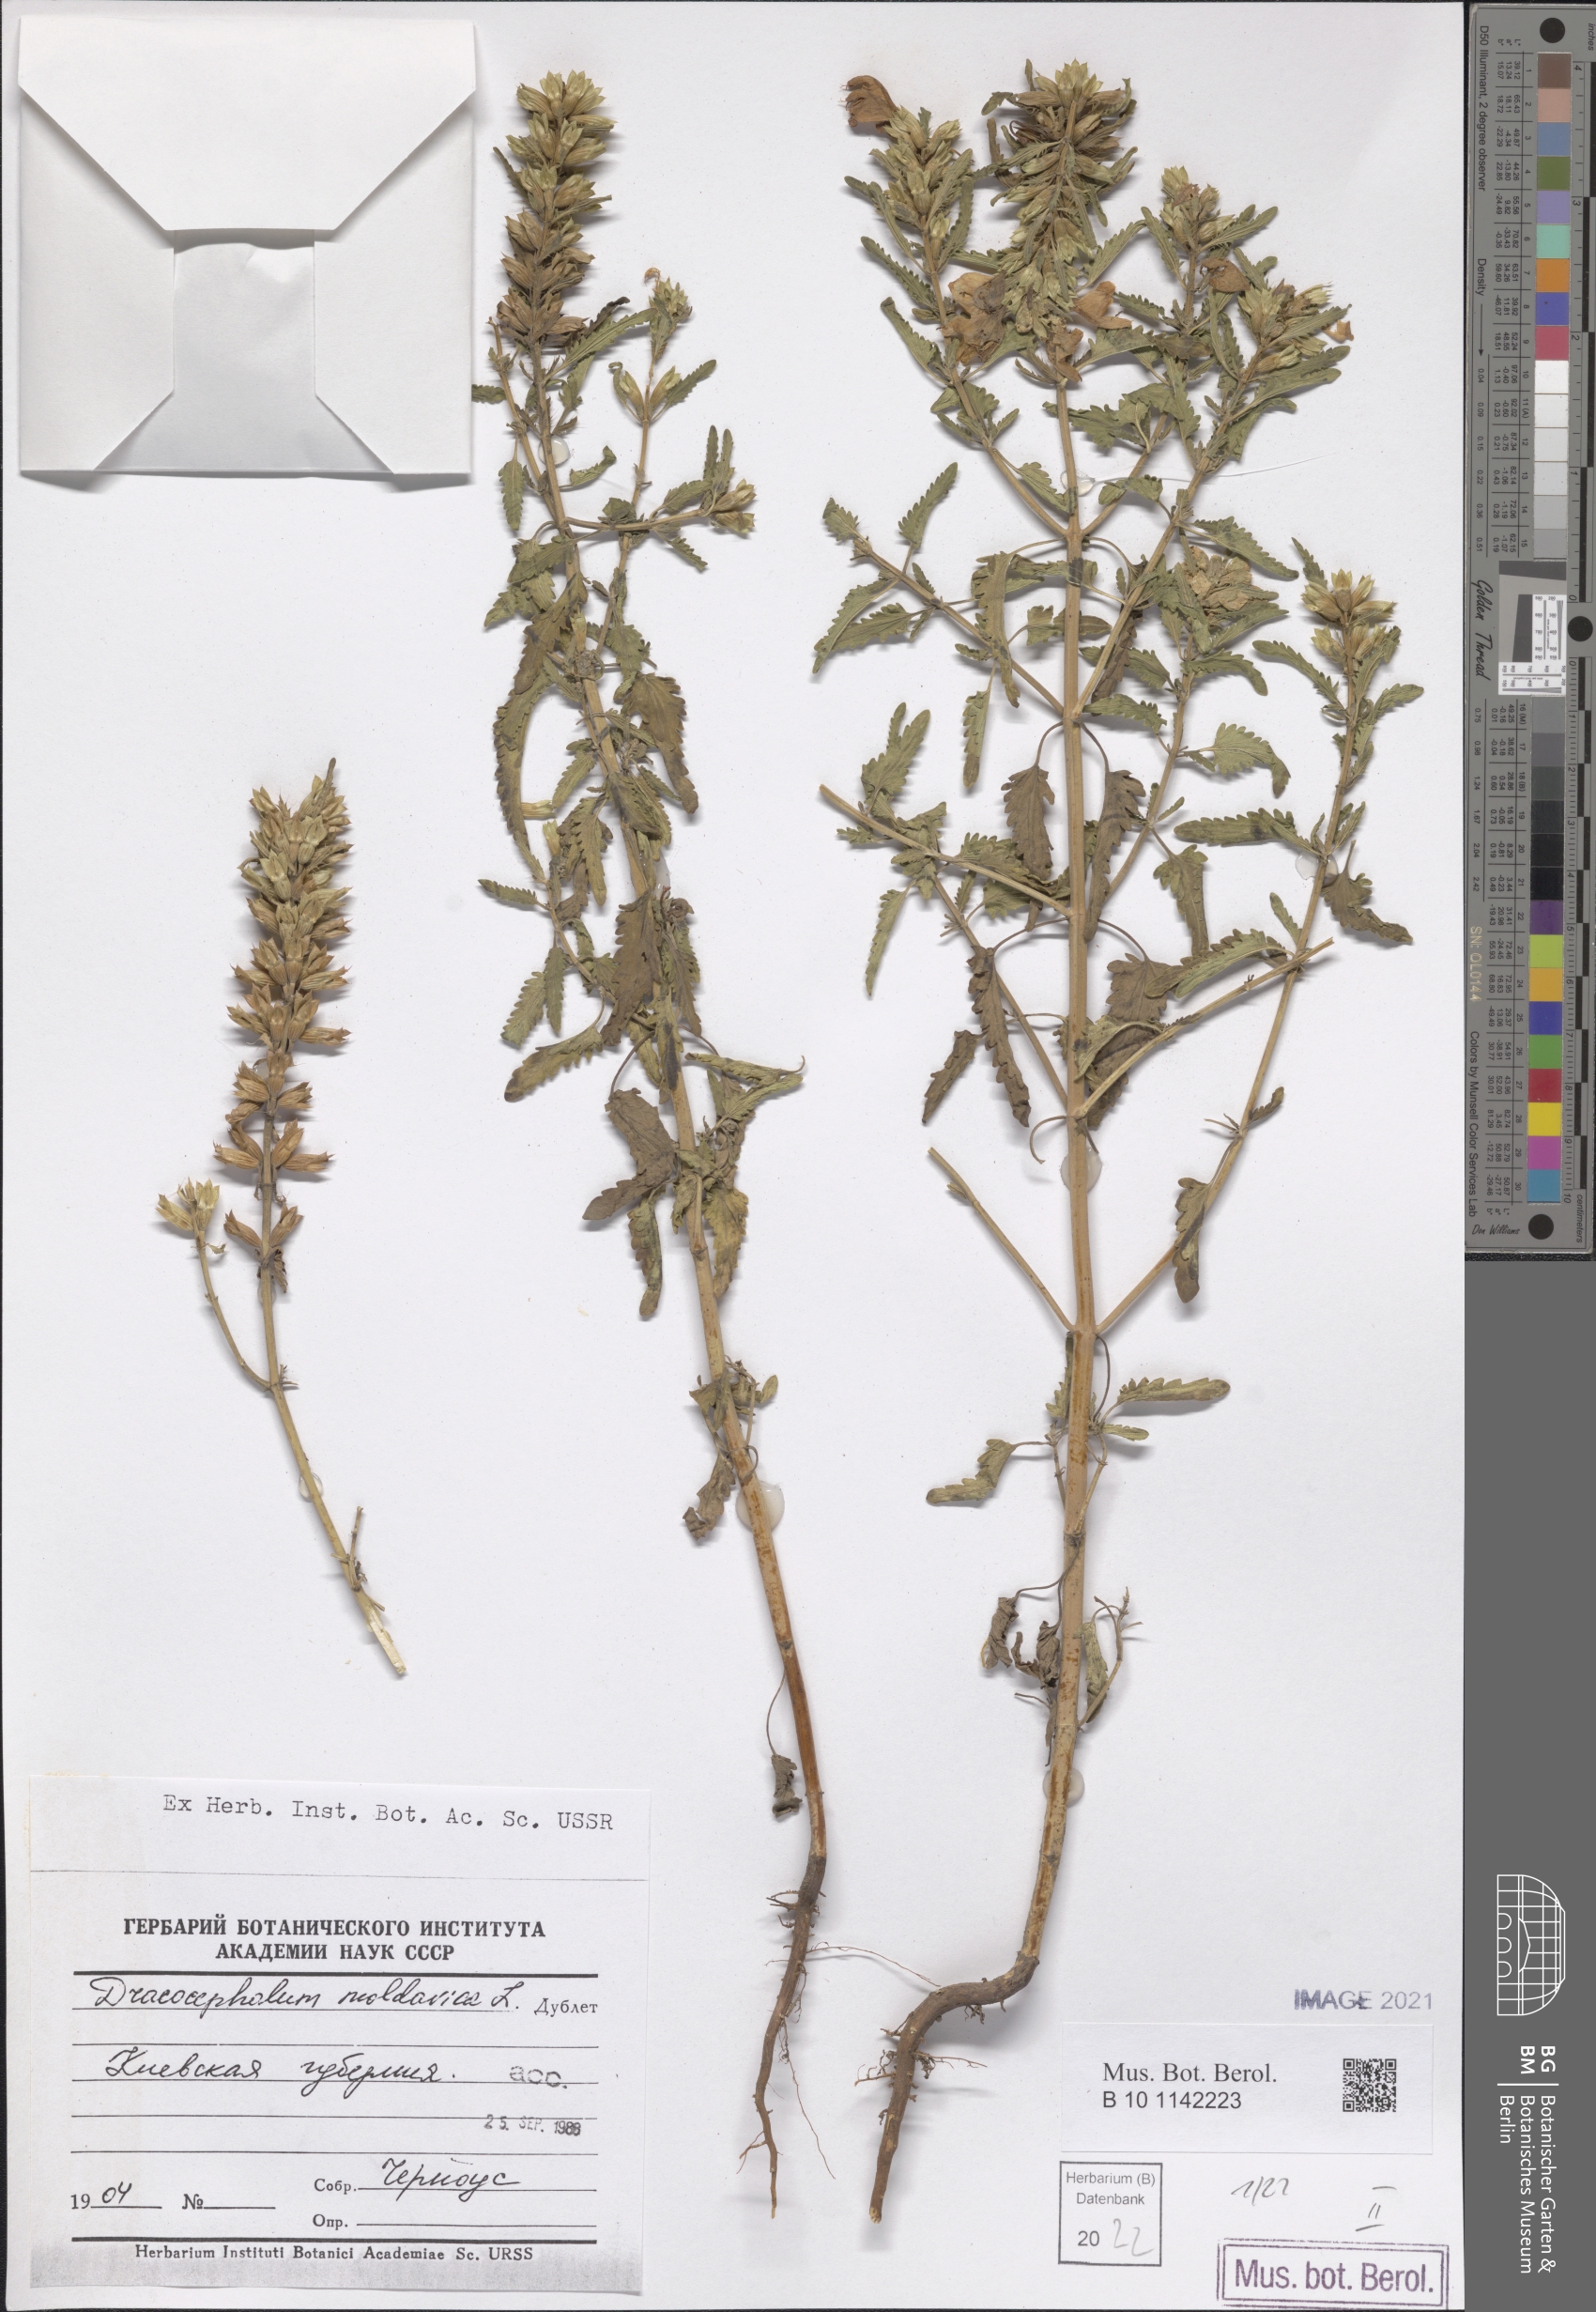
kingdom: Plantae
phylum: Tracheophyta
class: Magnoliopsida
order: Lamiales
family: Lamiaceae
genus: Dracocephalum
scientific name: Dracocephalum moldavica
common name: Moldavian dragonhead
